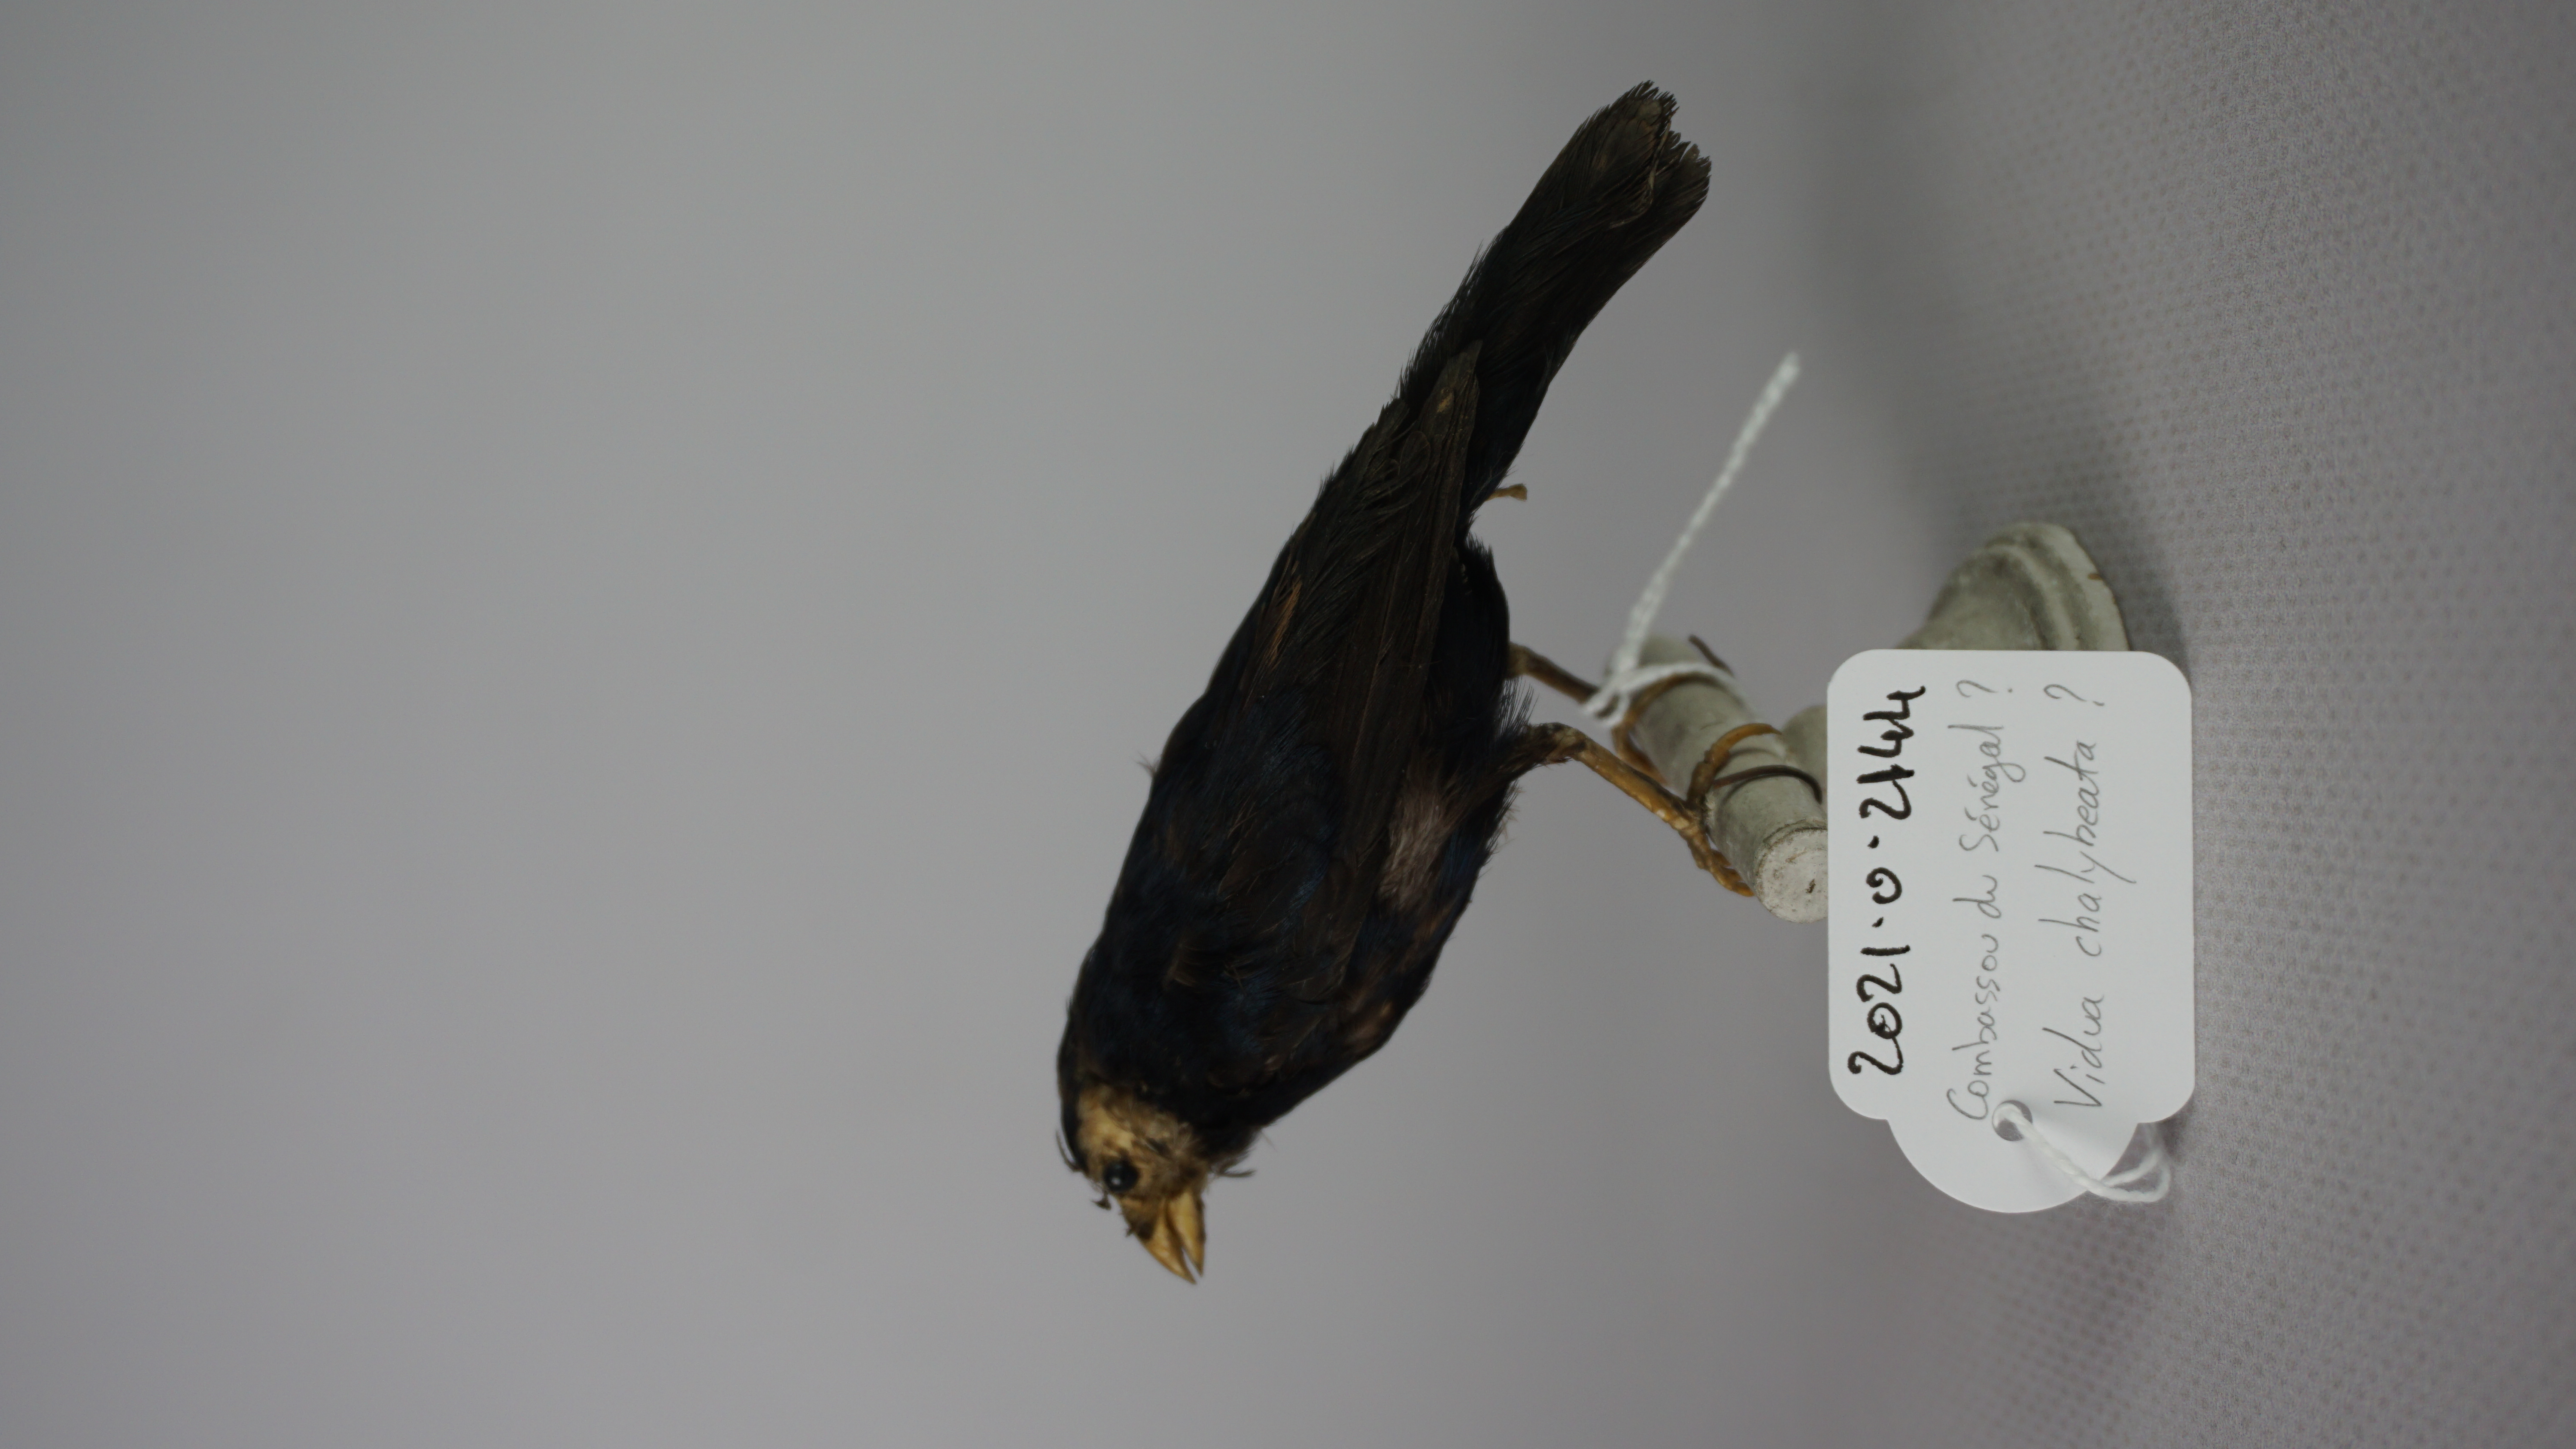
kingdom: Animalia
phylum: Chordata
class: Aves
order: Passeriformes
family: Viduidae
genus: Vidua
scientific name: Vidua chalybeata
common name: Village indigobird
